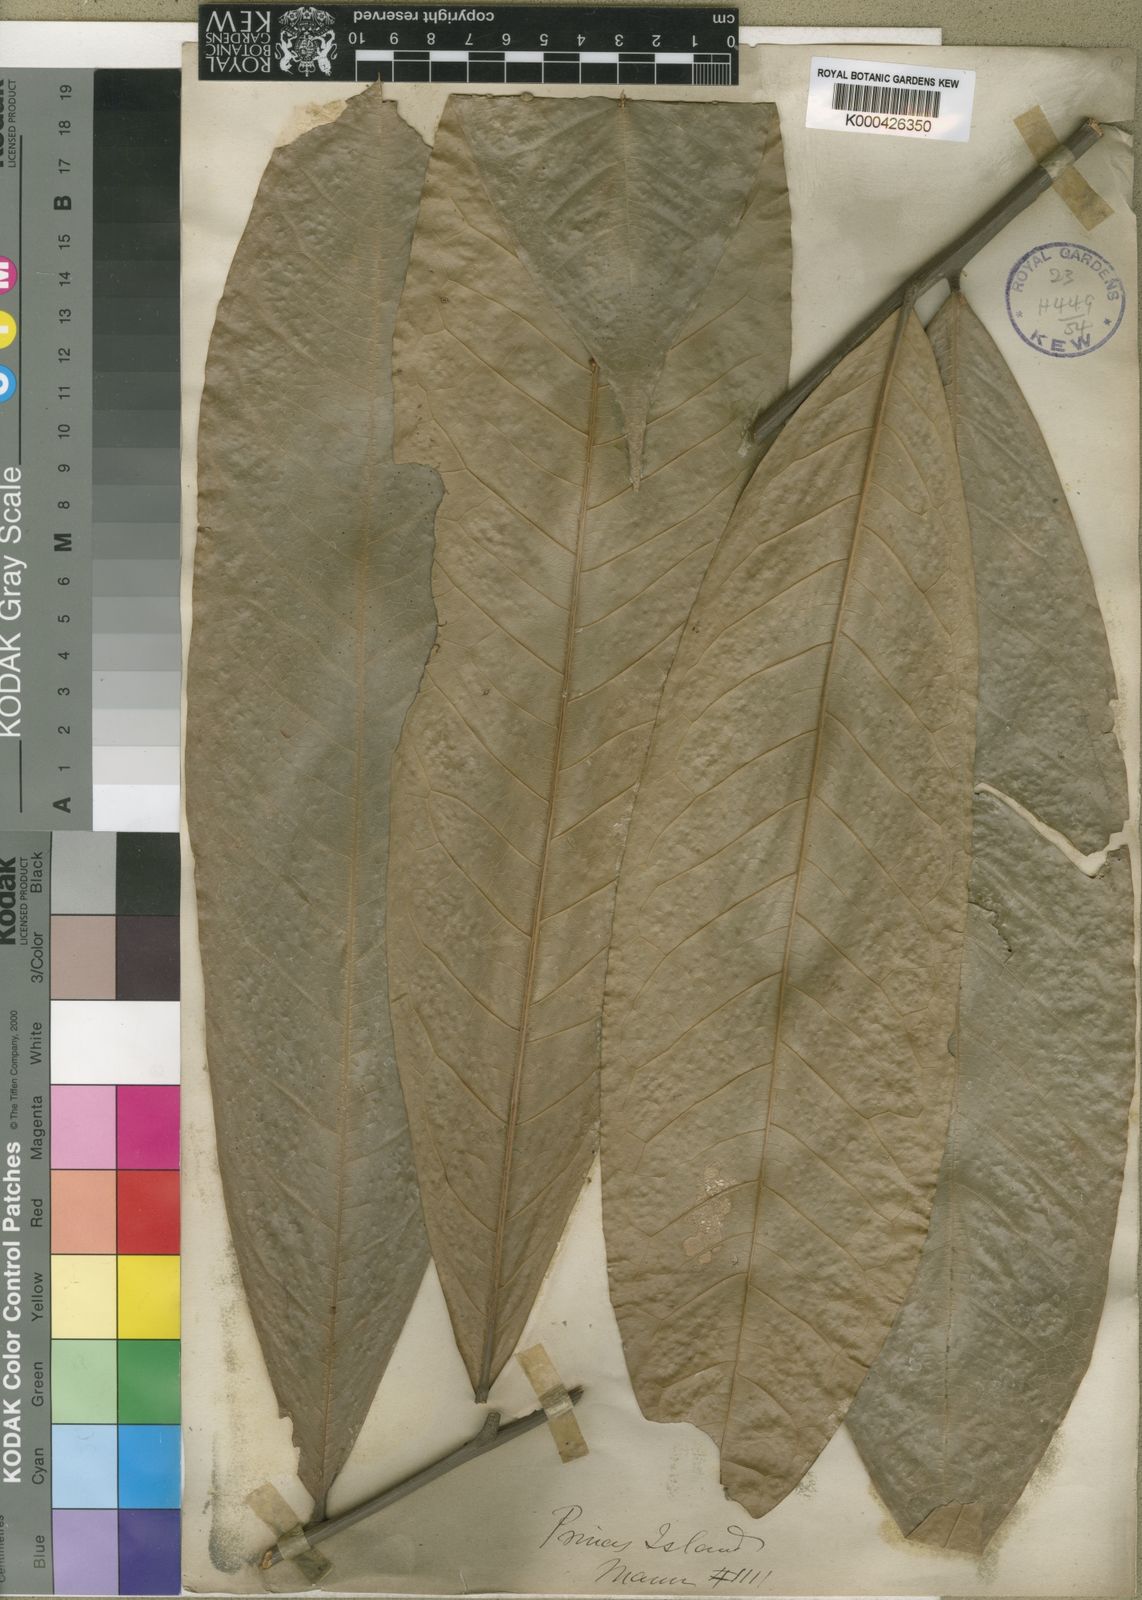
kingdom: Plantae
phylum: Tracheophyta
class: Magnoliopsida
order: Sapindales
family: Sapindaceae
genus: Chytranthus
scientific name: Chytranthus mannii
